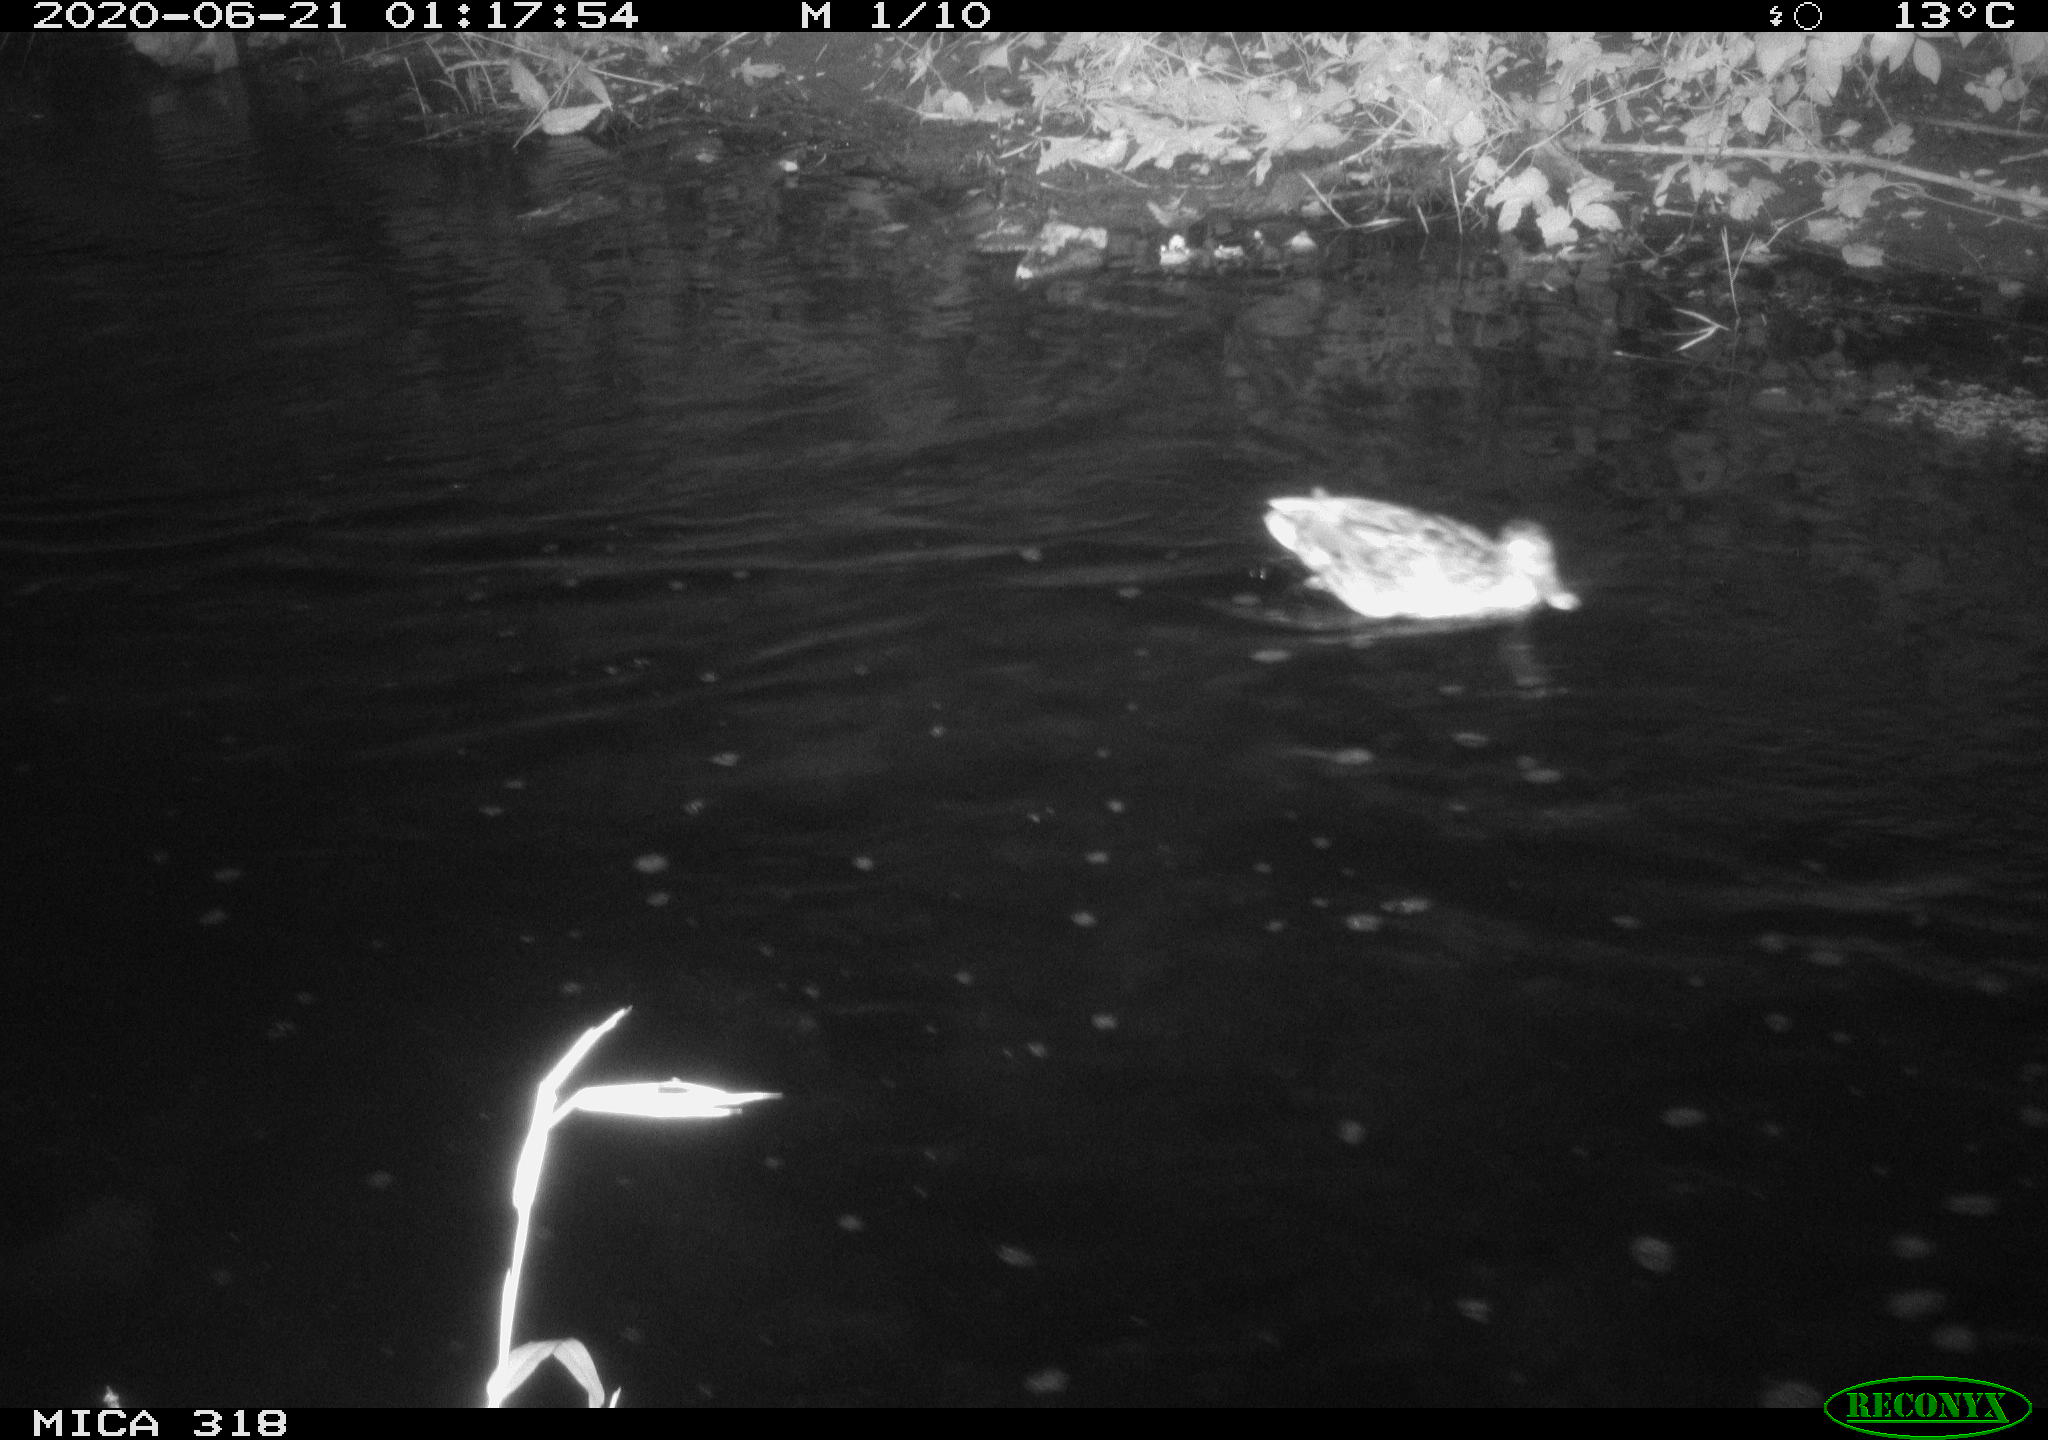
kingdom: Animalia
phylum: Chordata
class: Aves
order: Anseriformes
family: Anatidae
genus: Anas
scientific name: Anas platyrhynchos
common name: Mallard
